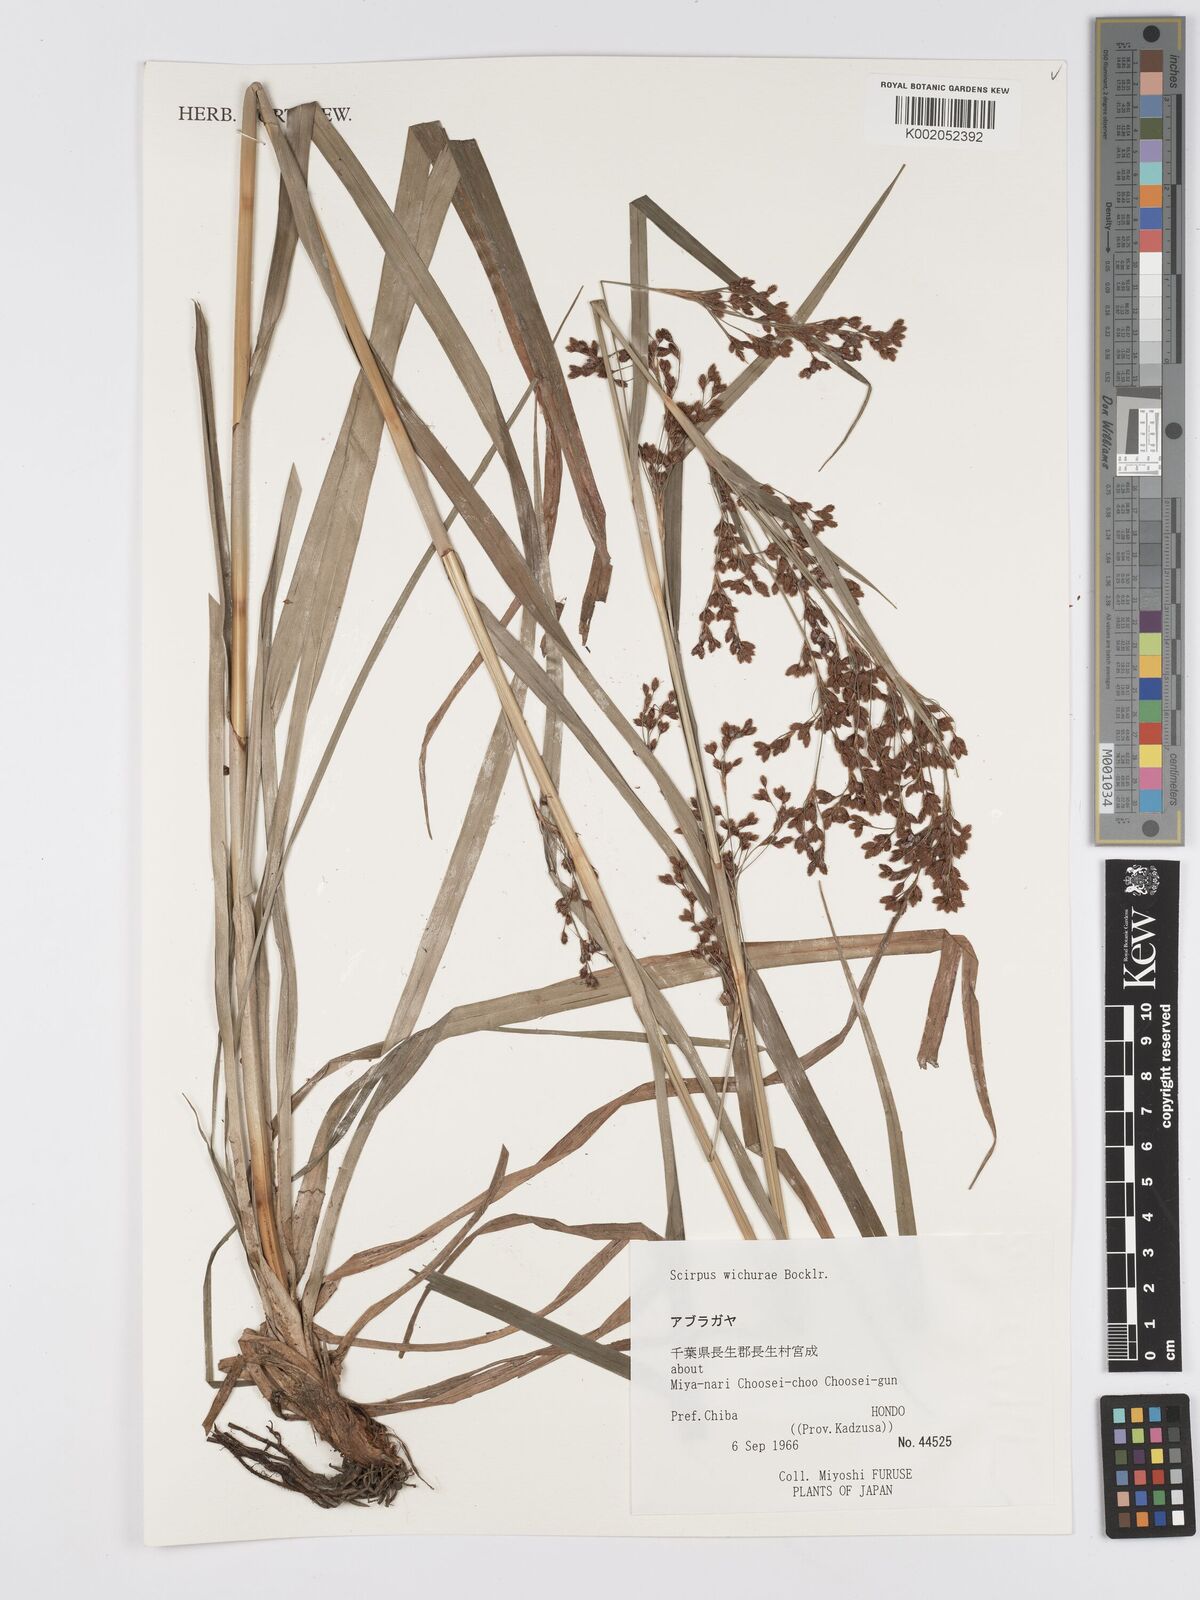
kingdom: Plantae
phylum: Tracheophyta
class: Liliopsida
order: Poales
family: Cyperaceae
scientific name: Cyperaceae
